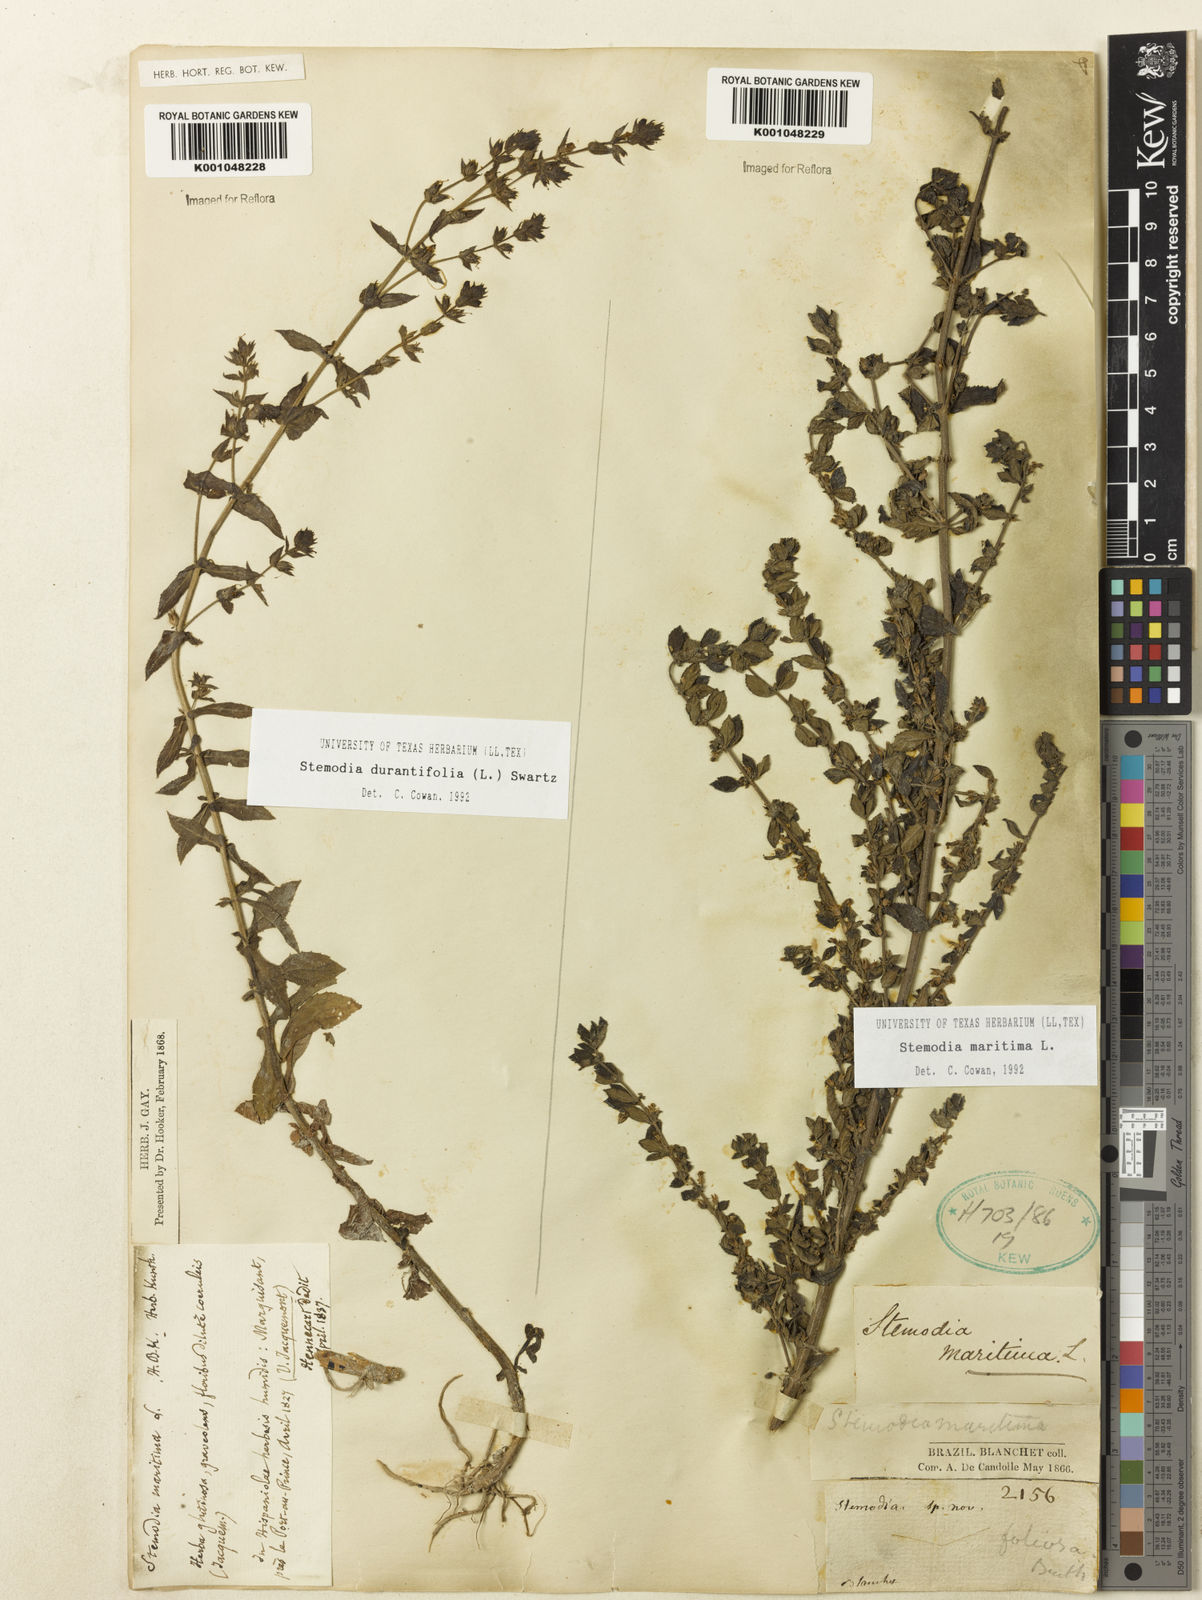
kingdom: Plantae
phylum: Tracheophyta
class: Magnoliopsida
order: Lamiales
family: Plantaginaceae
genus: Stemodia
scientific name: Stemodia maritima
